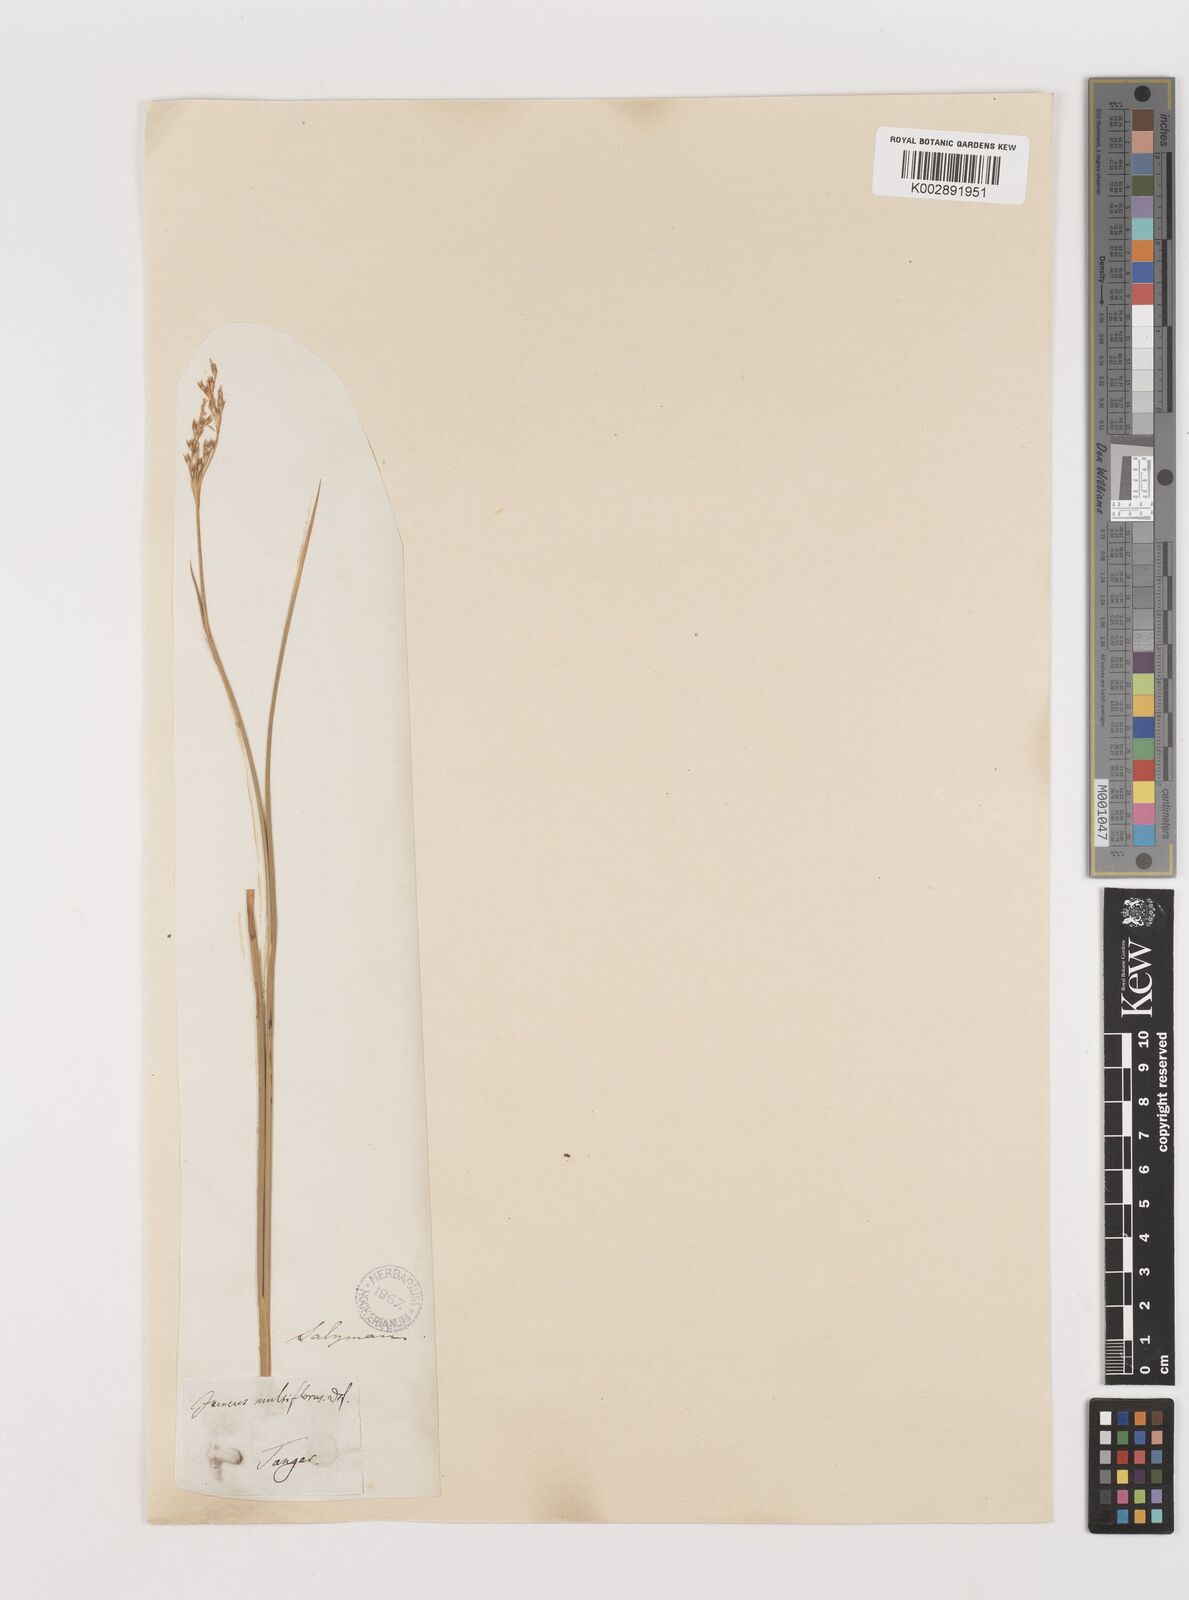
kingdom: Plantae
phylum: Tracheophyta
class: Liliopsida
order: Poales
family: Juncaceae
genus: Juncus
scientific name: Juncus subulatus
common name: Somerset rush
